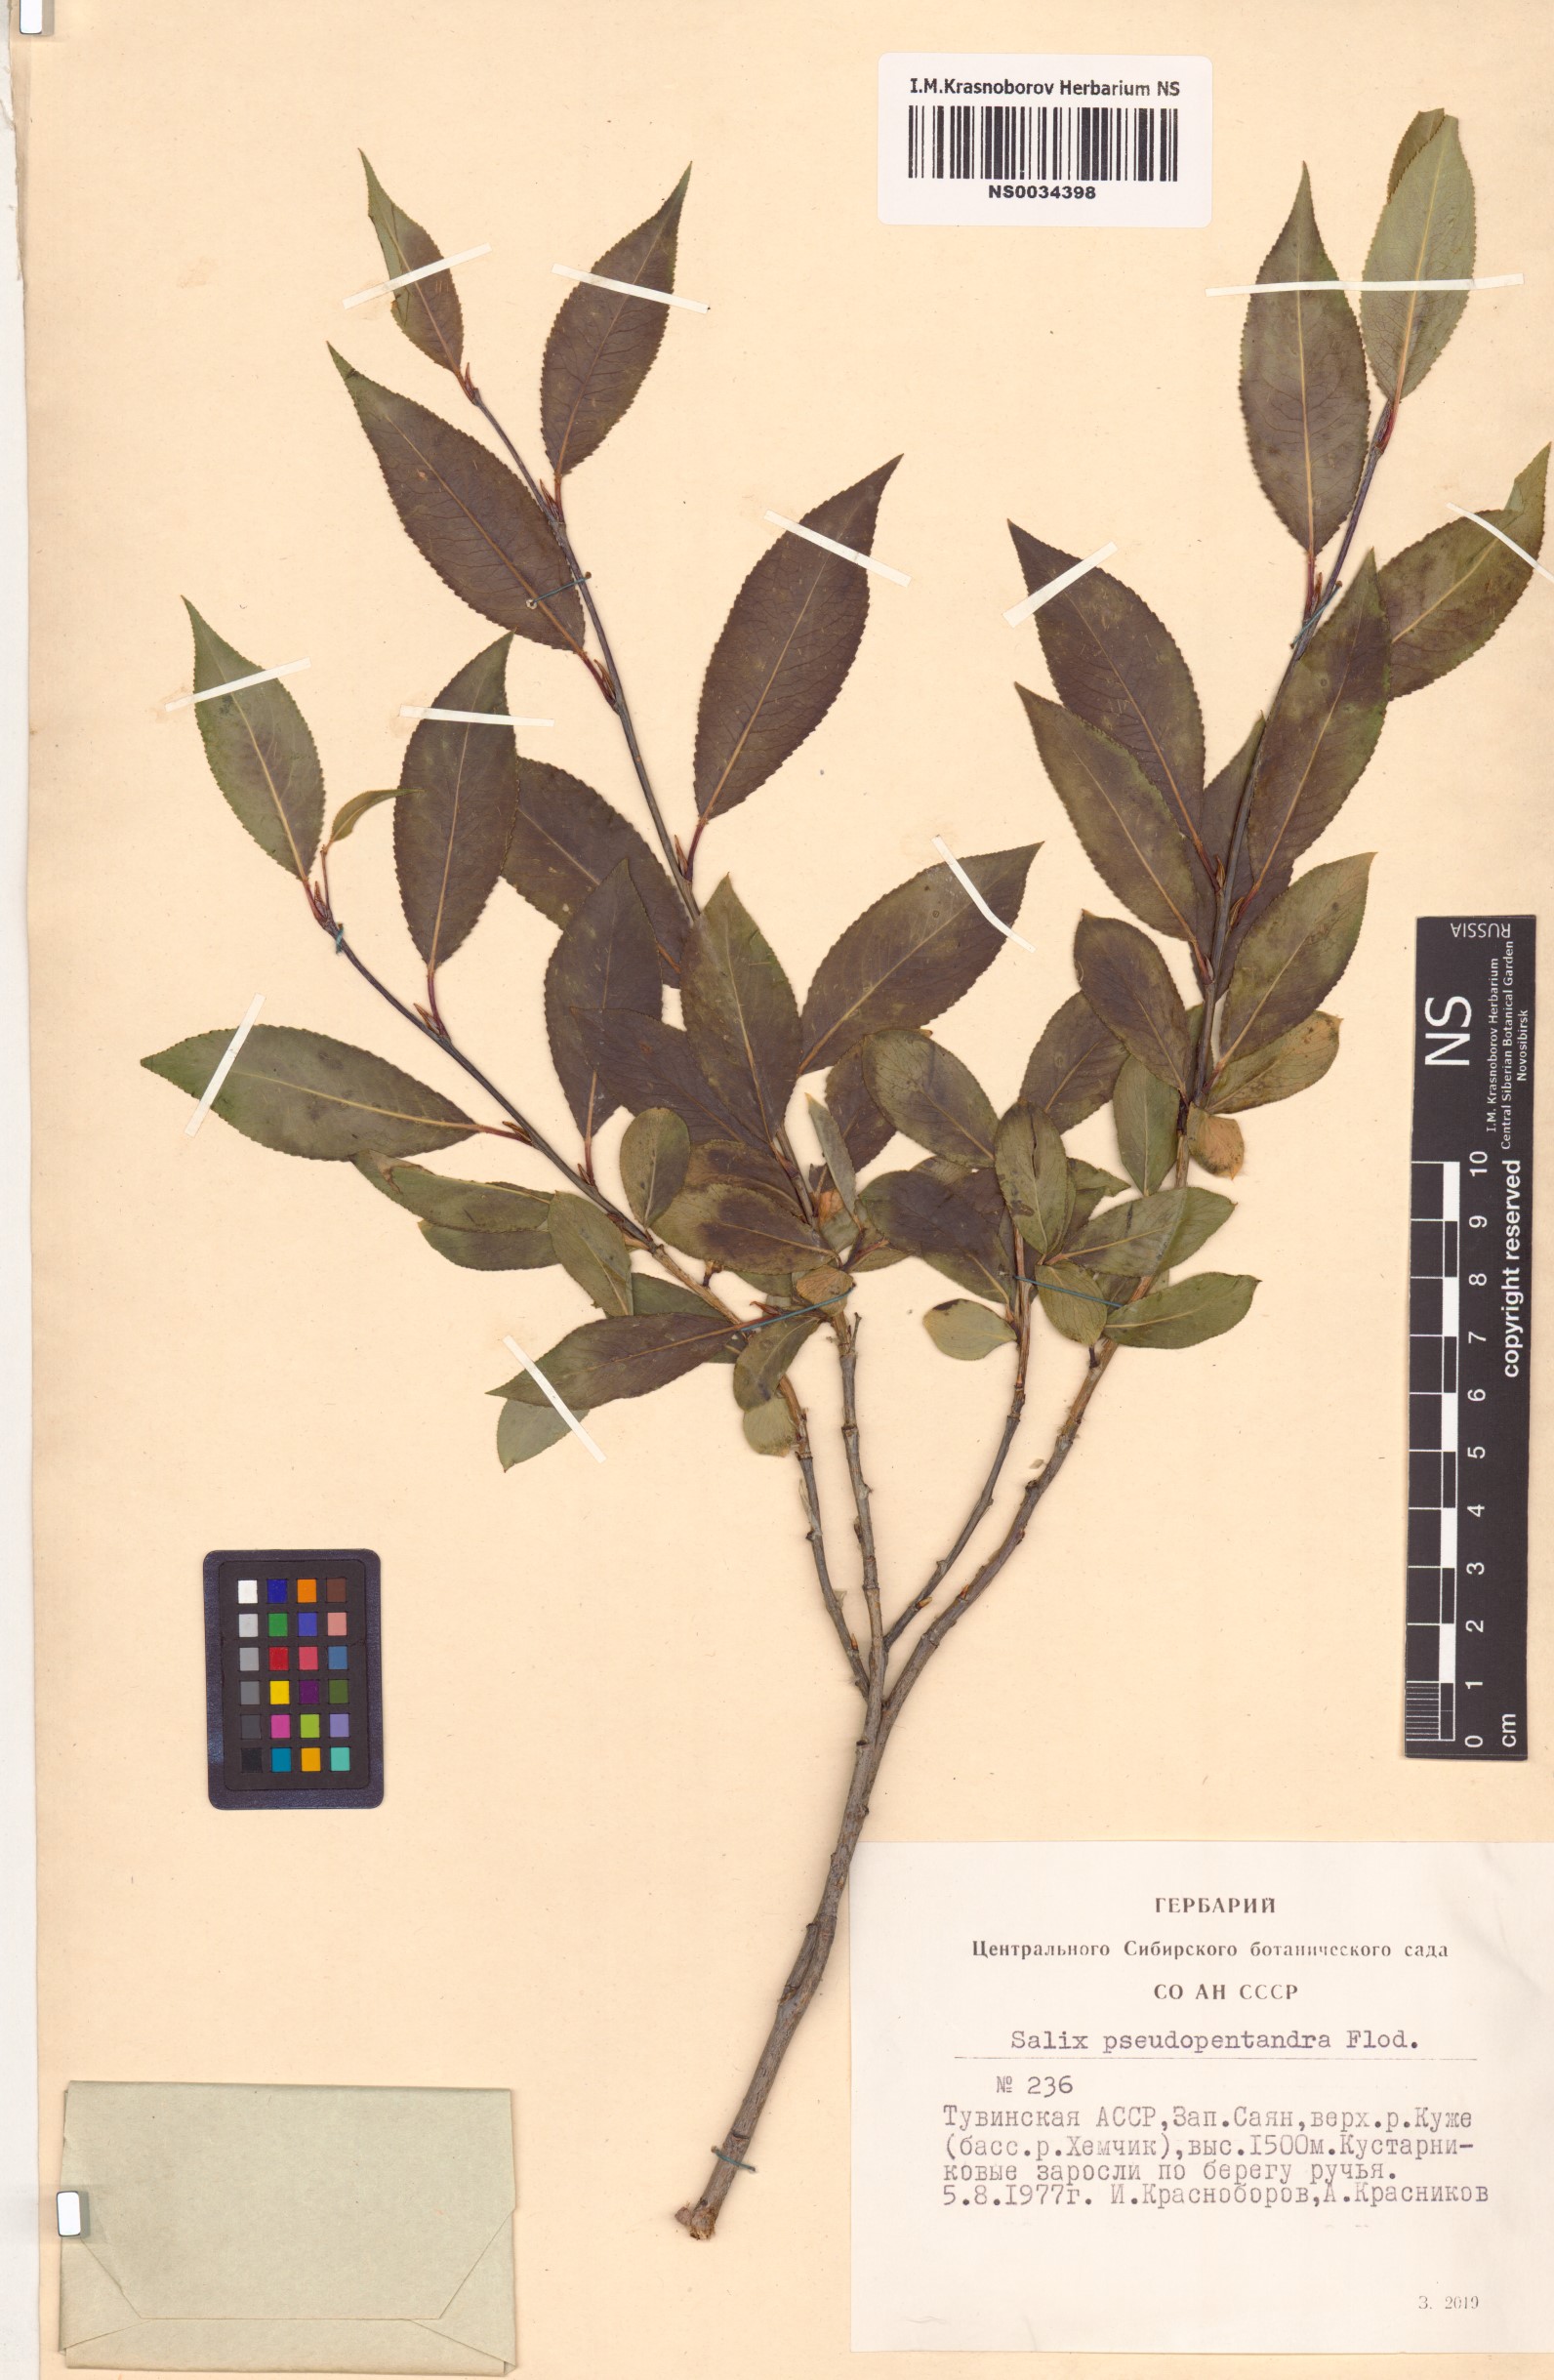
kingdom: Plantae
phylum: Tracheophyta
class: Magnoliopsida
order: Malpighiales
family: Salicaceae
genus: Salix
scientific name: Salix pseudopentandra
